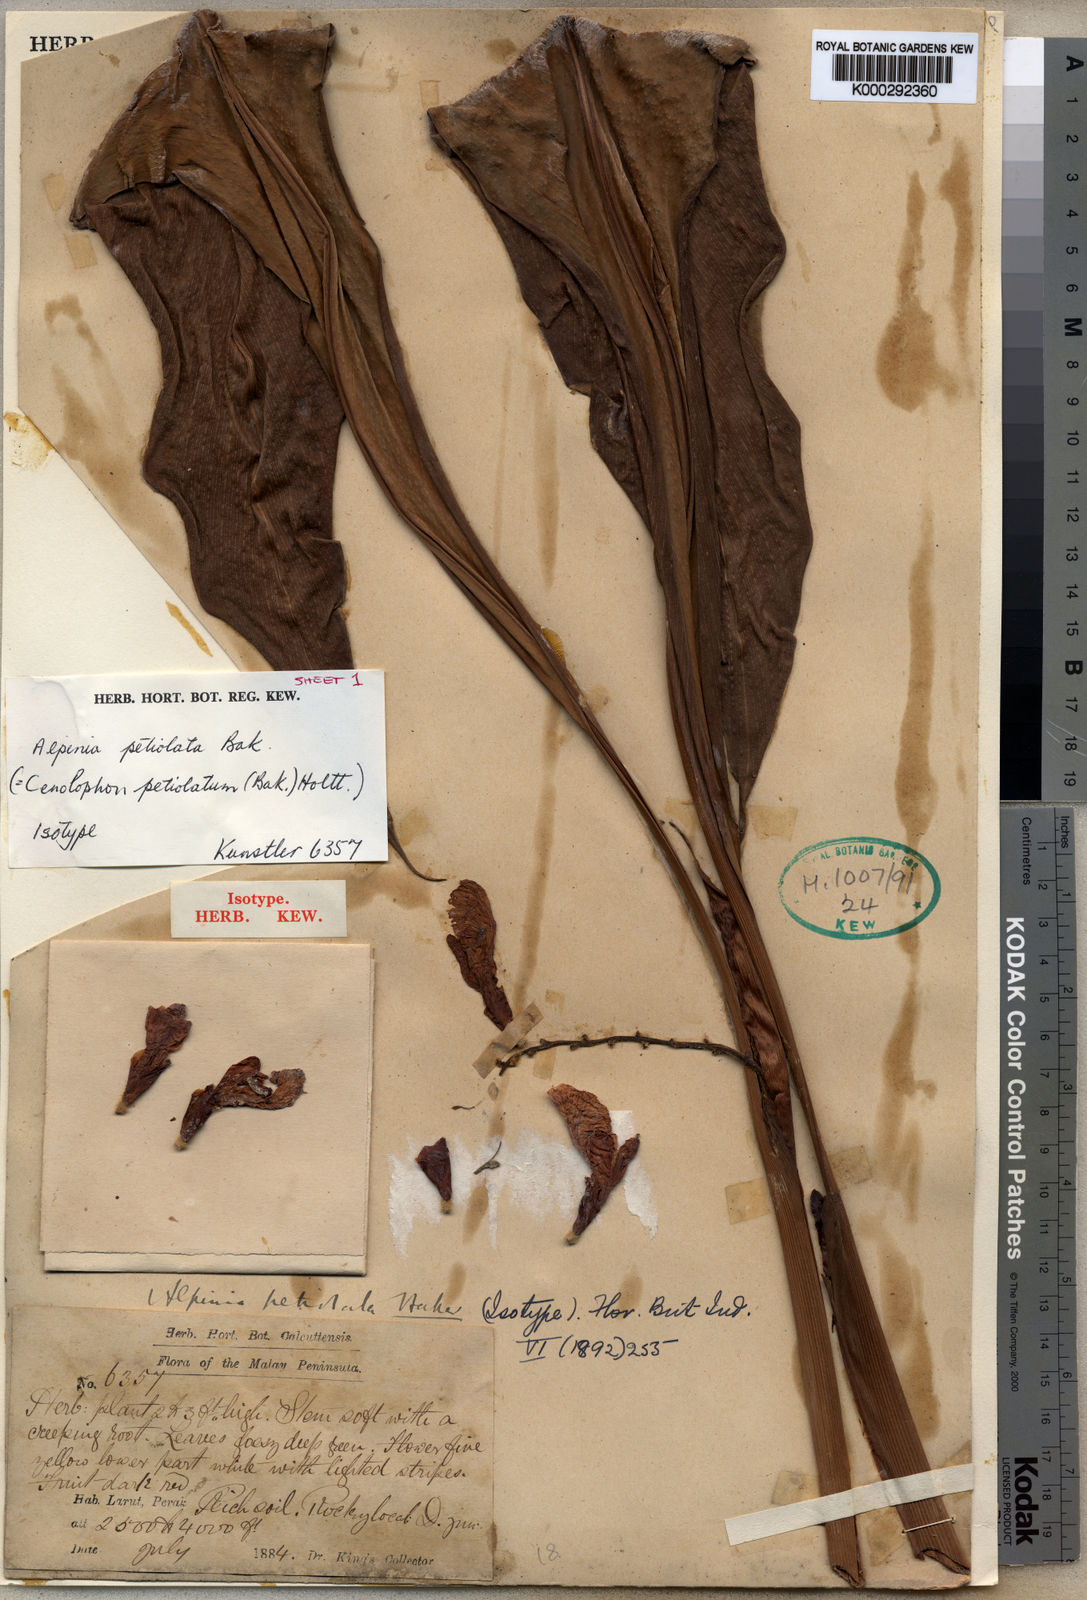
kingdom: Plantae
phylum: Tracheophyta
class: Liliopsida
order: Zingiberales
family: Zingiberaceae
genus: Alpinia
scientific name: Alpinia petiolata
